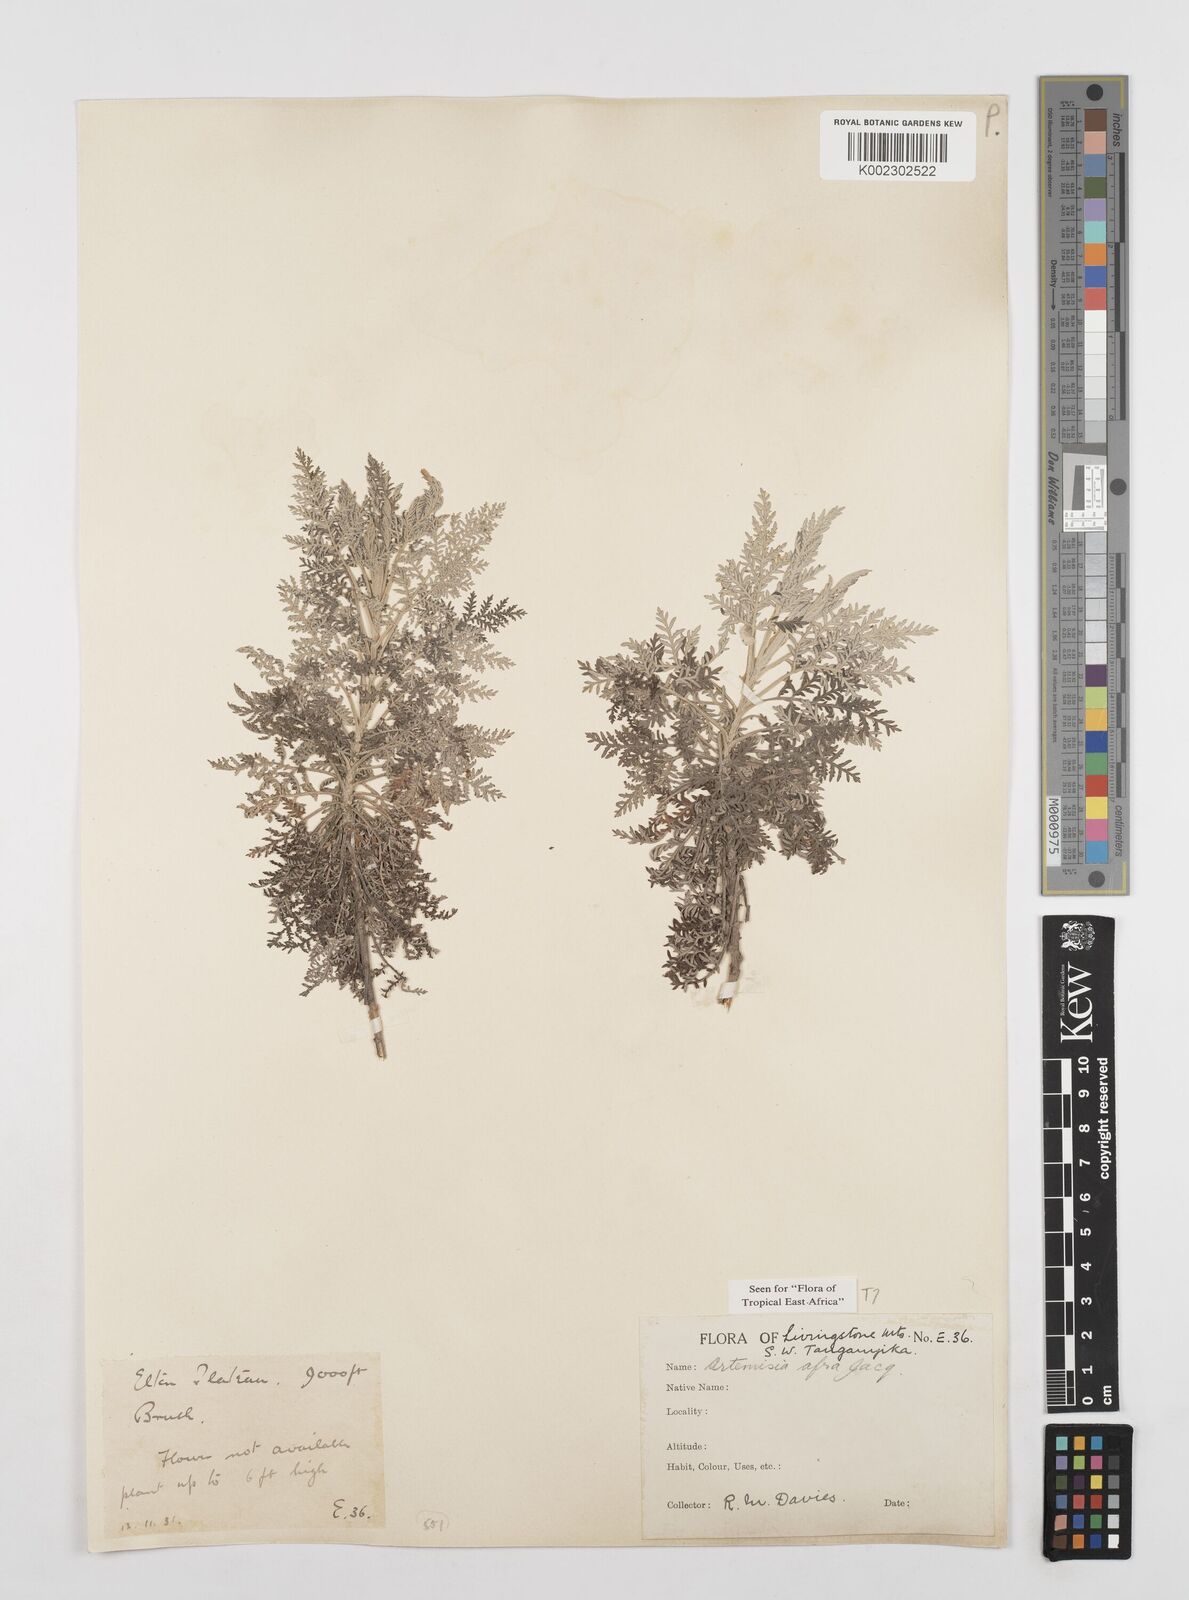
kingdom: Plantae
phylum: Tracheophyta
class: Magnoliopsida
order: Asterales
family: Asteraceae
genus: Artemisia
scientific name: Artemisia afra
